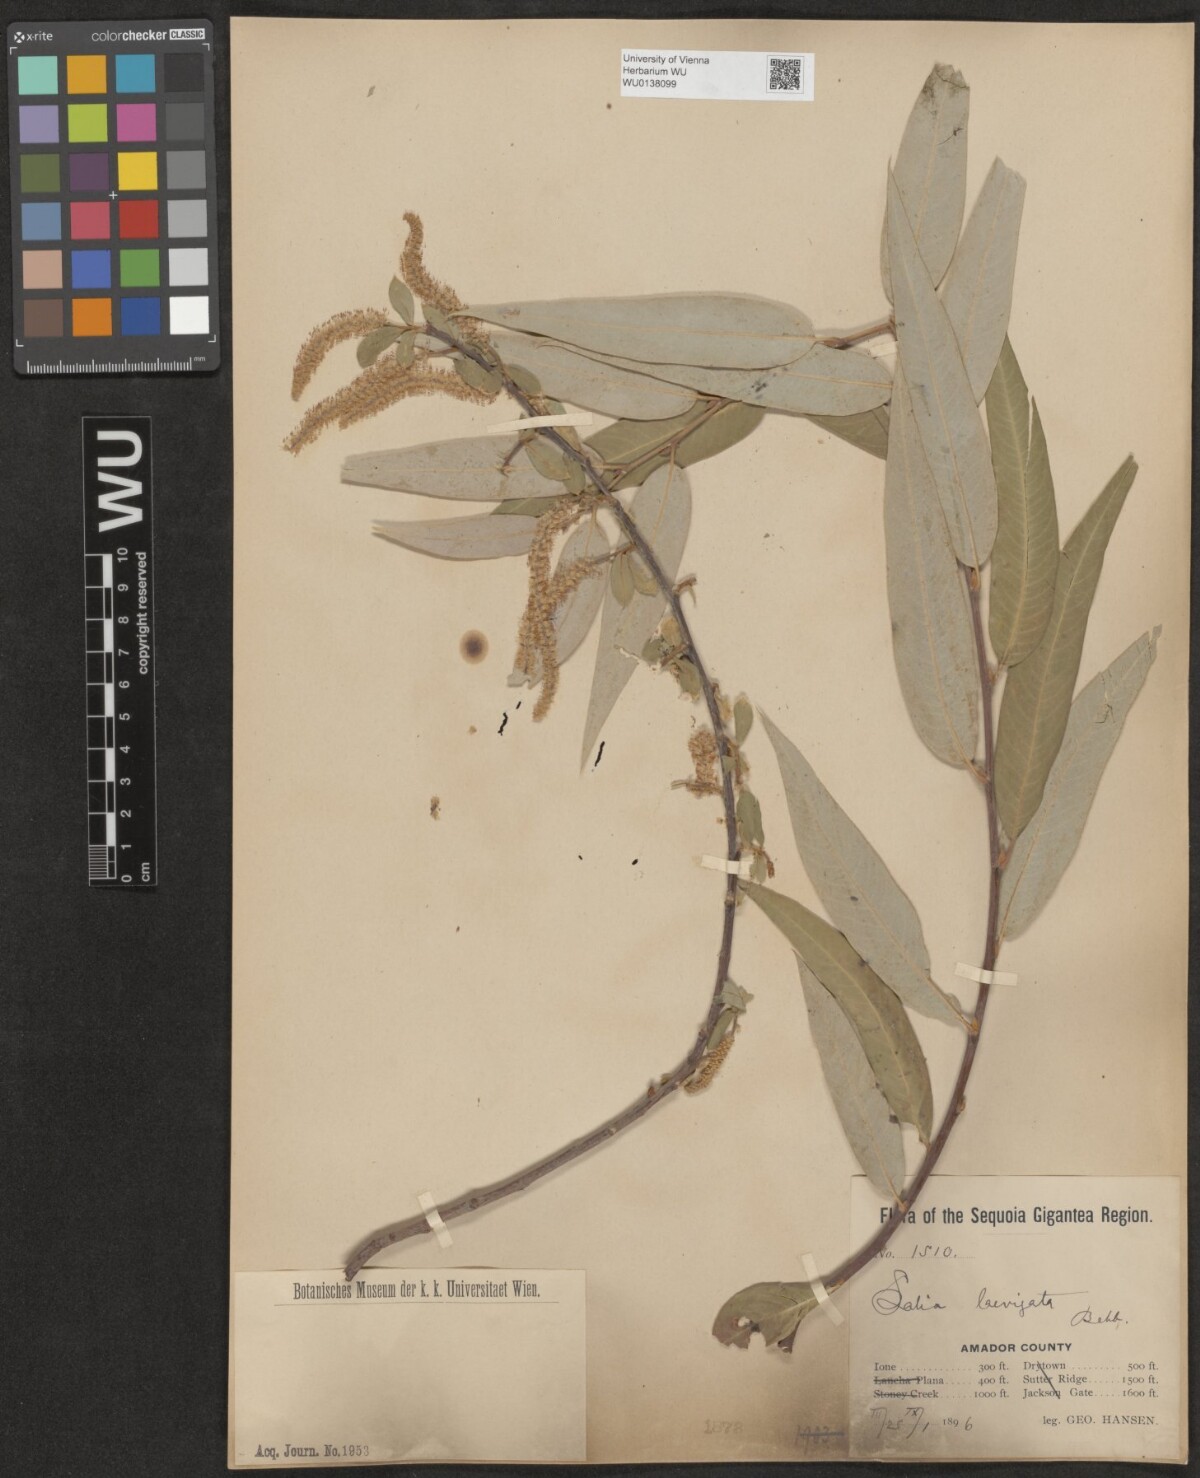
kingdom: Plantae
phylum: Tracheophyta
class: Magnoliopsida
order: Malpighiales
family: Salicaceae
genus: Salix
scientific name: Salix laevigata
